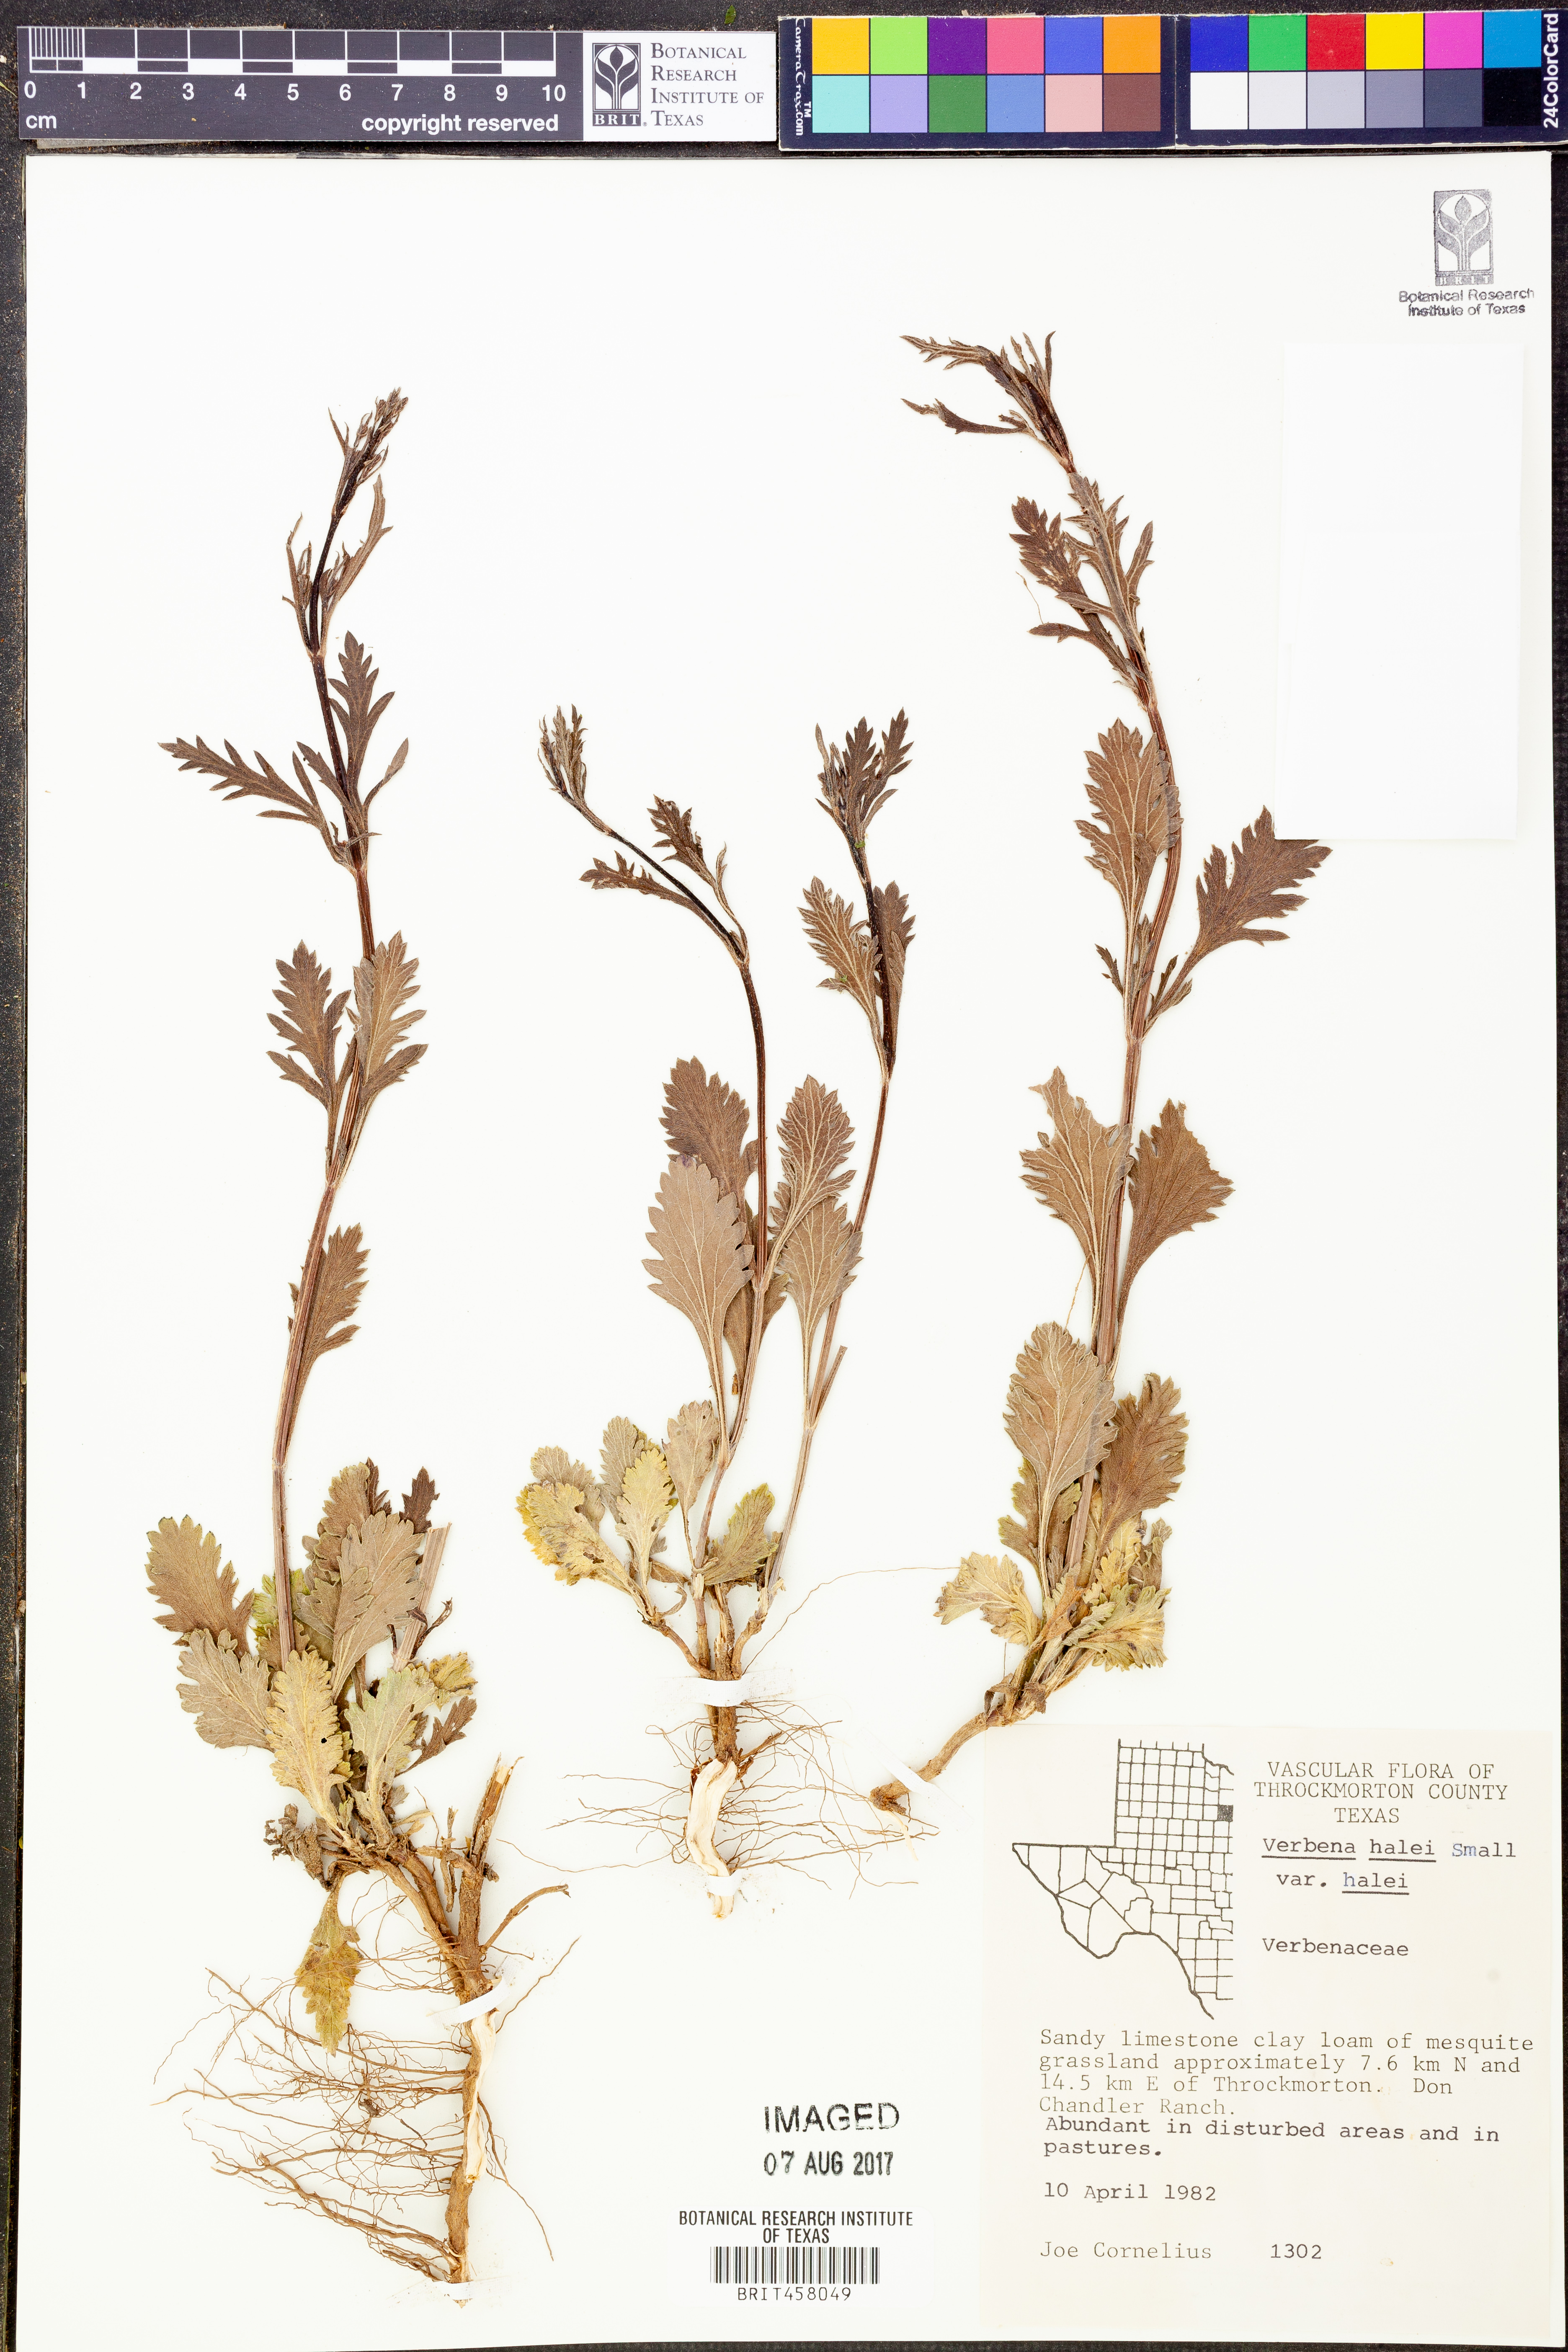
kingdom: Plantae
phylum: Tracheophyta
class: Magnoliopsida
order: Lamiales
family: Verbenaceae
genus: Verbena
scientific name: Verbena halei
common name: Texas vervain
